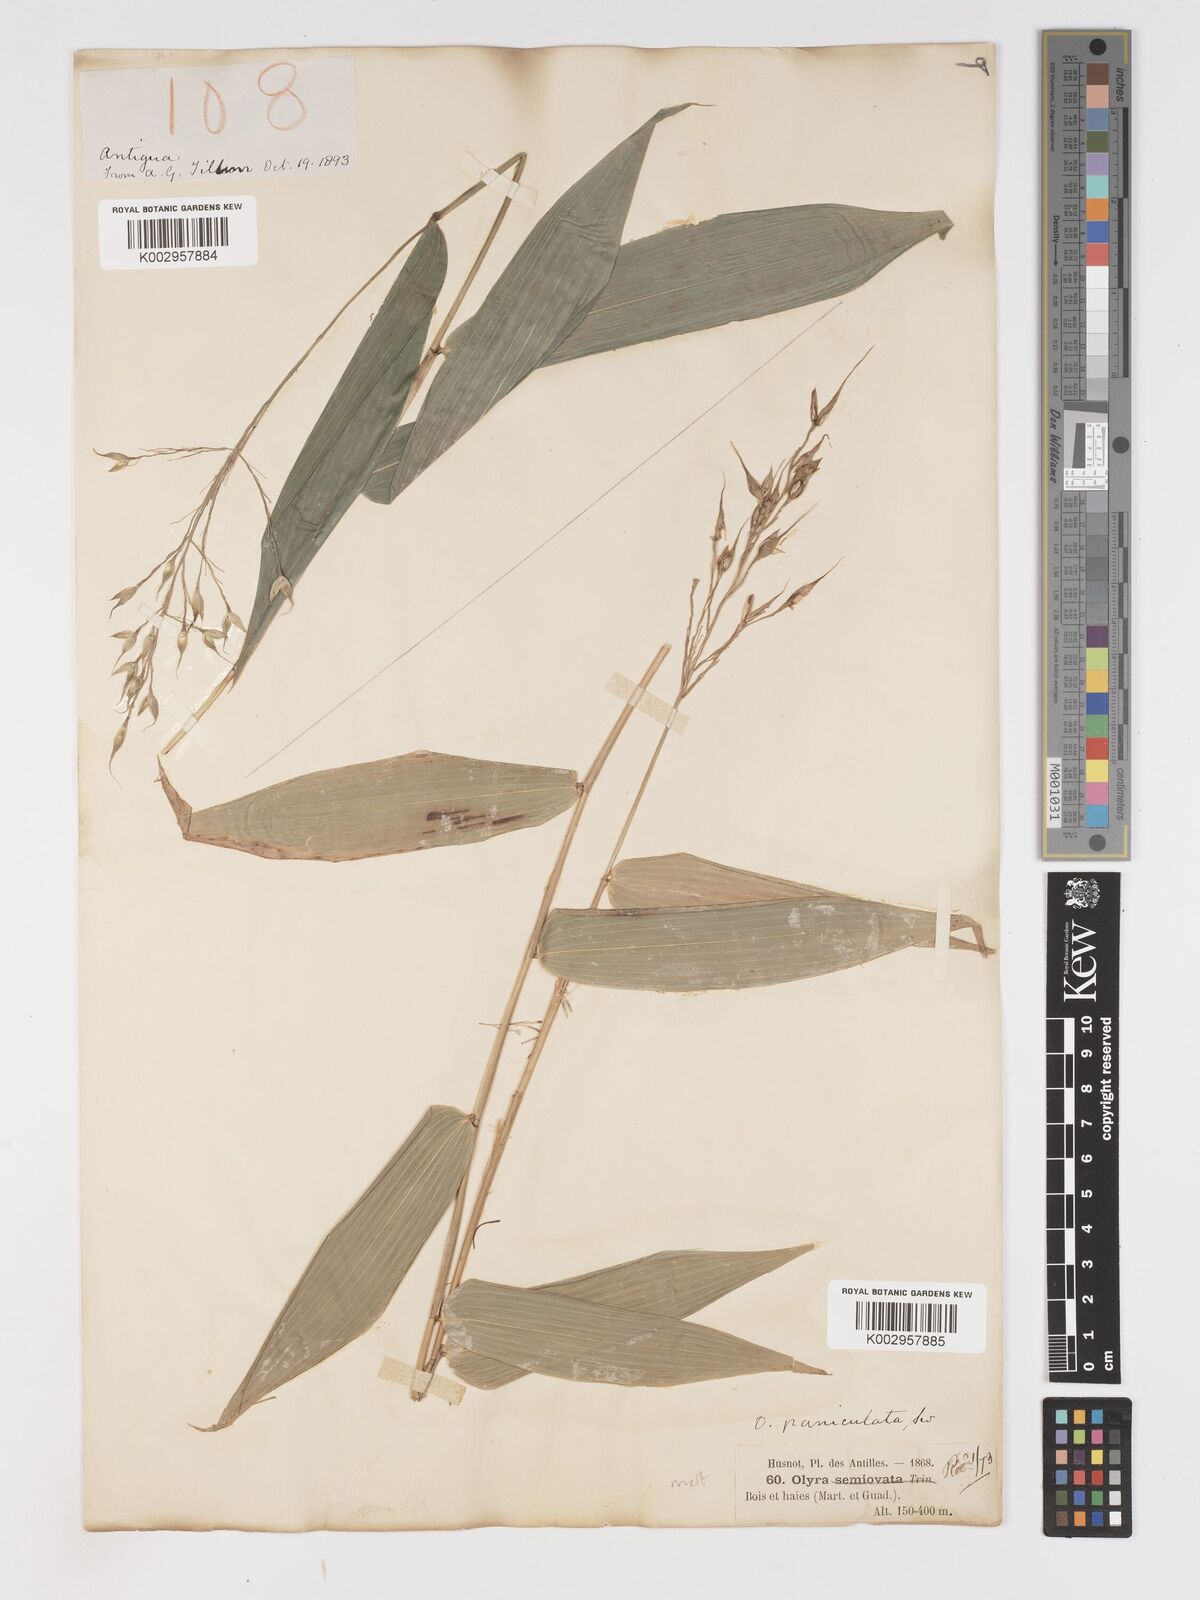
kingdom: Plantae
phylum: Tracheophyta
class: Liliopsida
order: Poales
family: Poaceae
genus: Olyra
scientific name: Olyra latifolia
